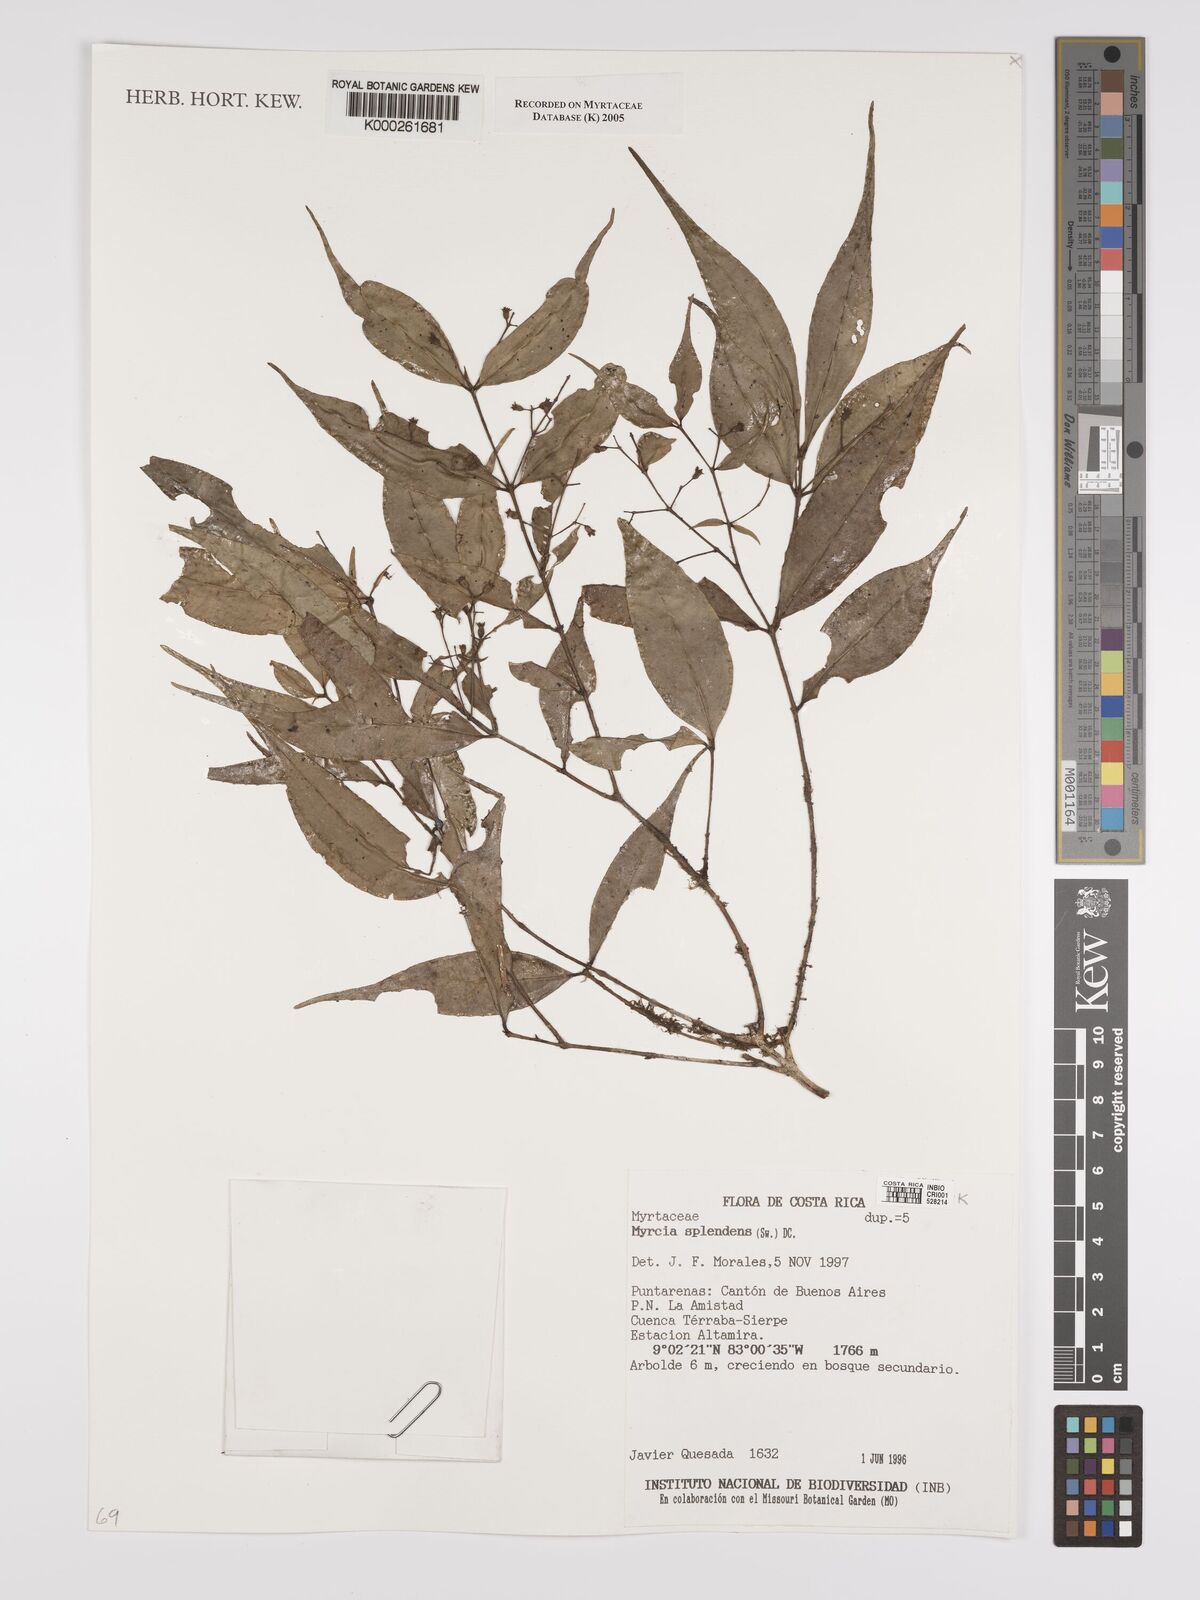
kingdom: Plantae
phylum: Tracheophyta
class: Magnoliopsida
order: Myrtales
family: Myrtaceae
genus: Myrcia
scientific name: Myrcia splendens
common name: Surinam cherry
